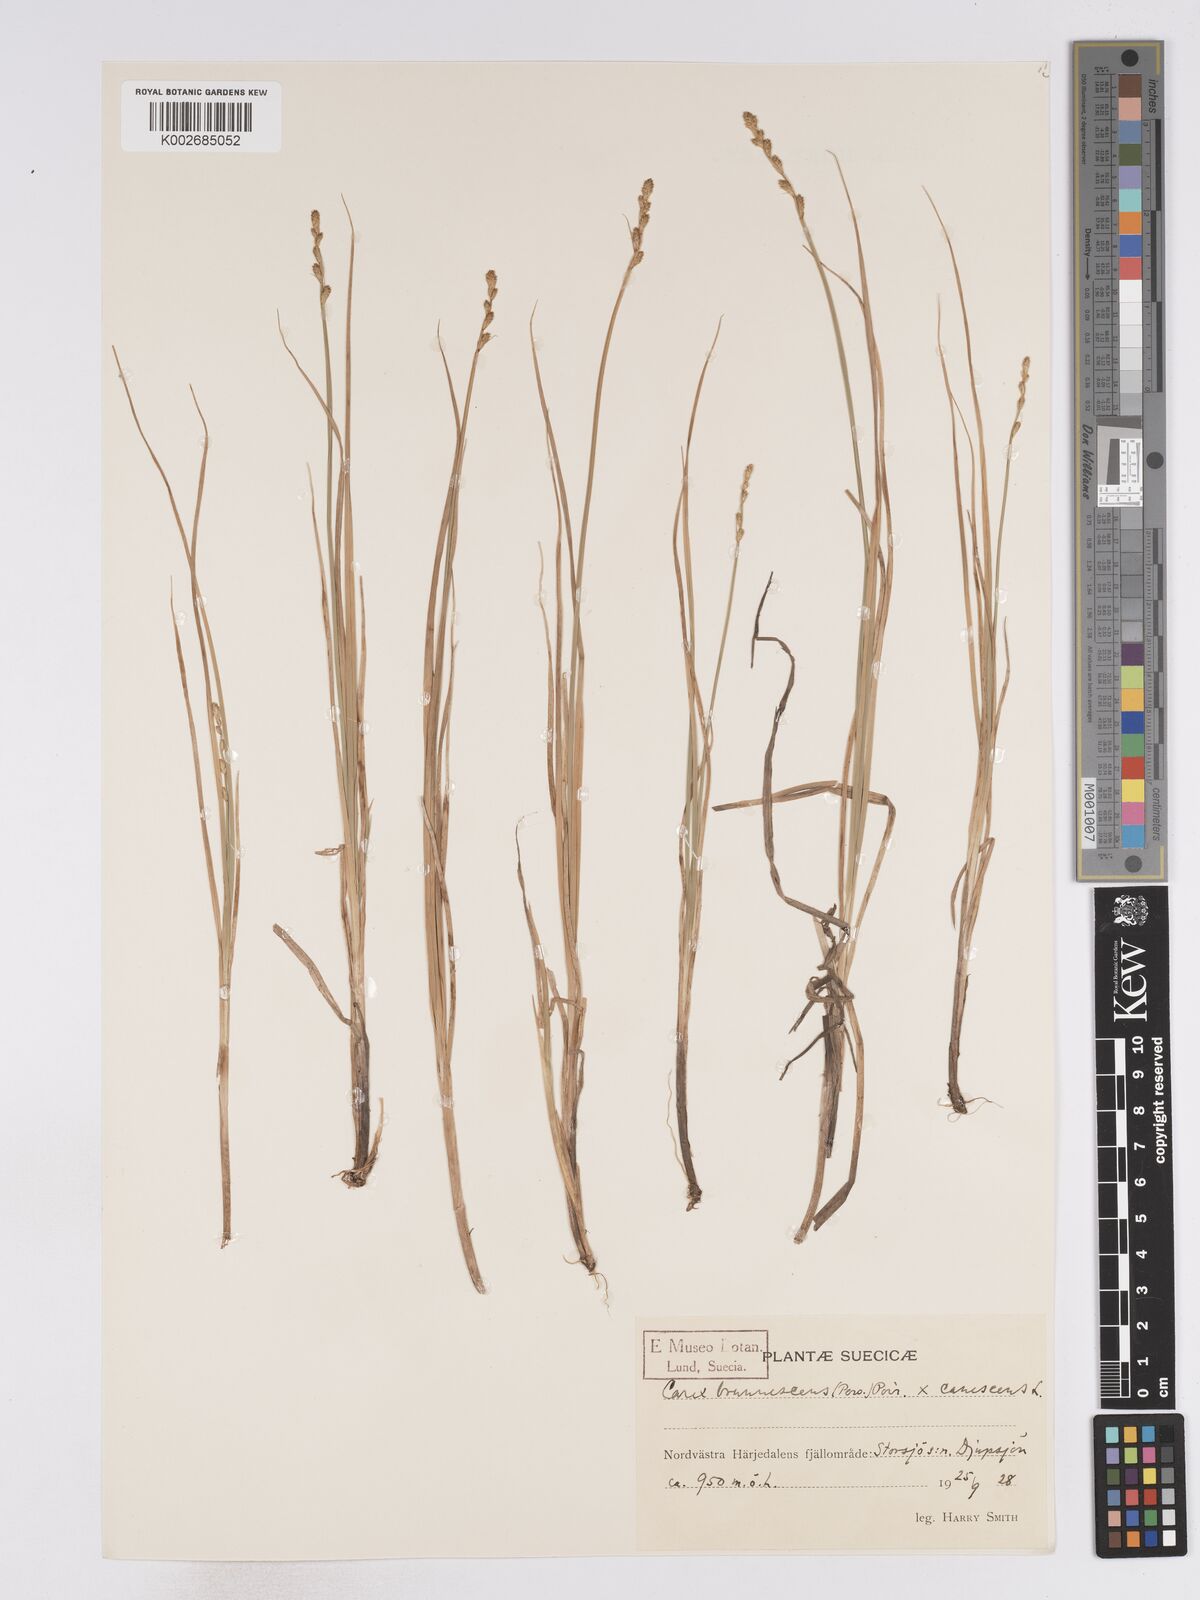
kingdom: Plantae
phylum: Tracheophyta
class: Liliopsida
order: Poales
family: Cyperaceae
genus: Carex
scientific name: Carex brunnescens
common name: Brown sedge
